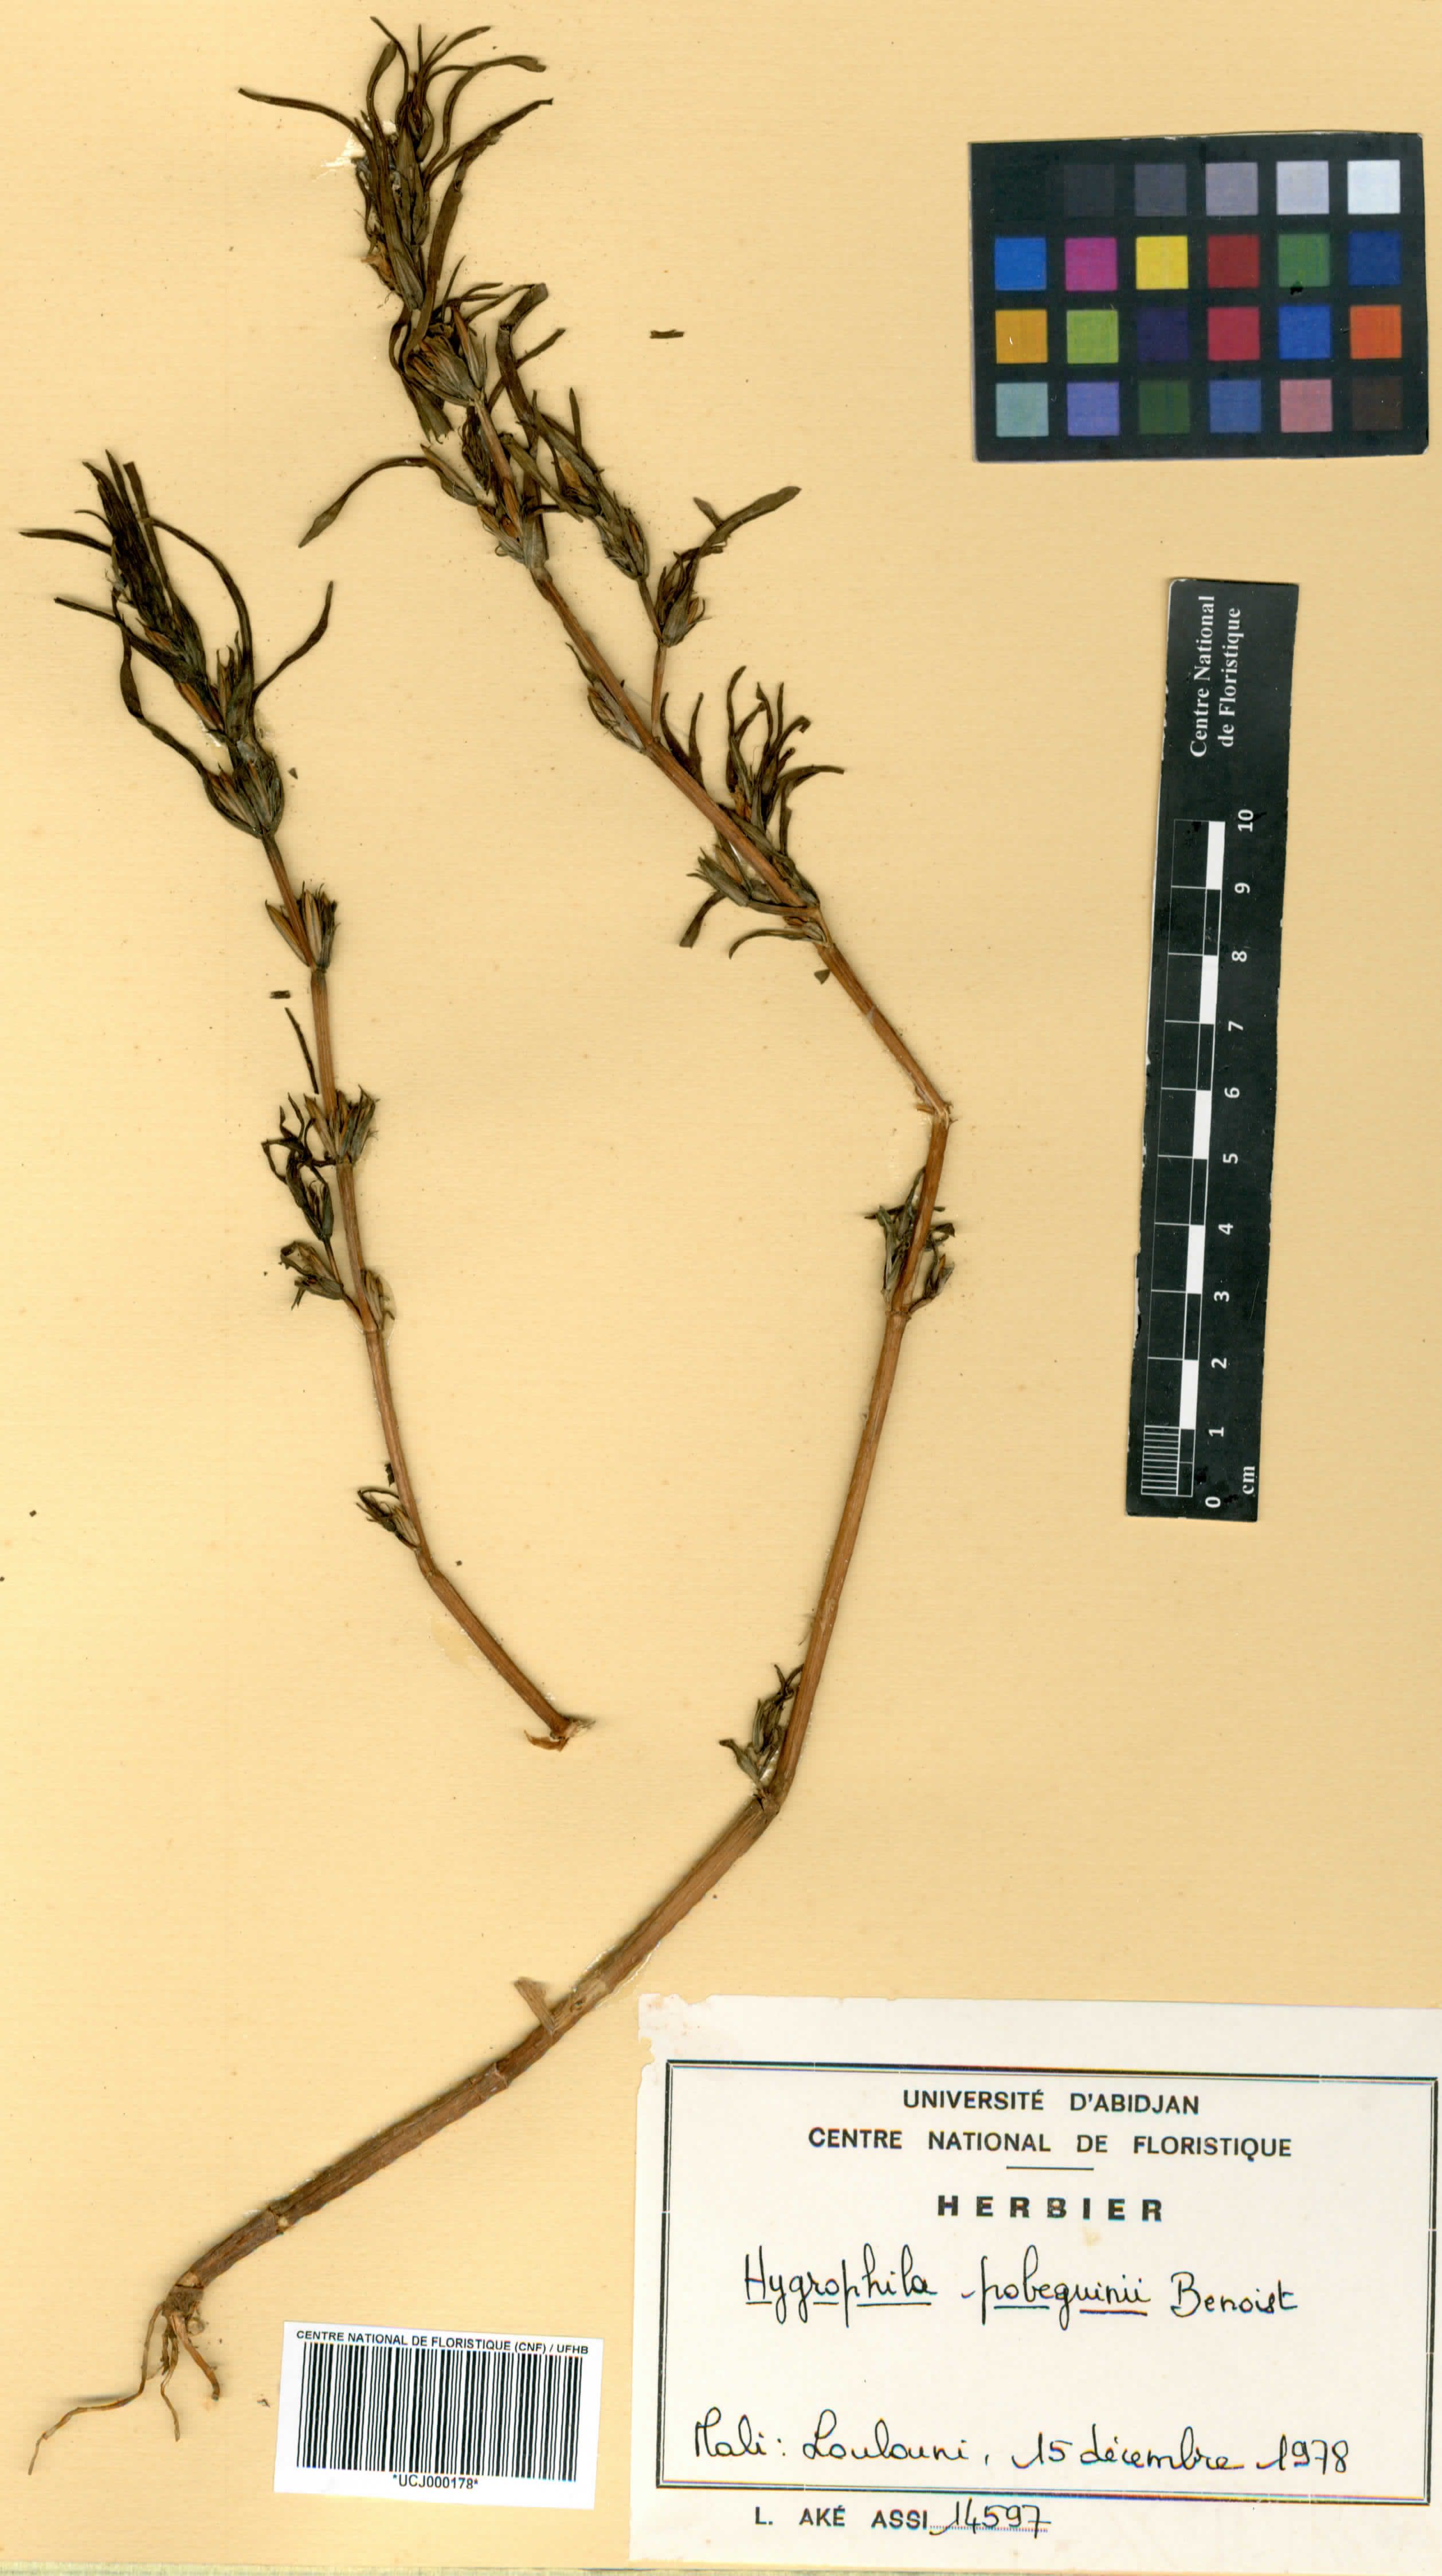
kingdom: Plantae
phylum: Tracheophyta
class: Magnoliopsida
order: Lamiales
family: Acanthaceae
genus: Hygrophila
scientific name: Hygrophila pobeguinii
